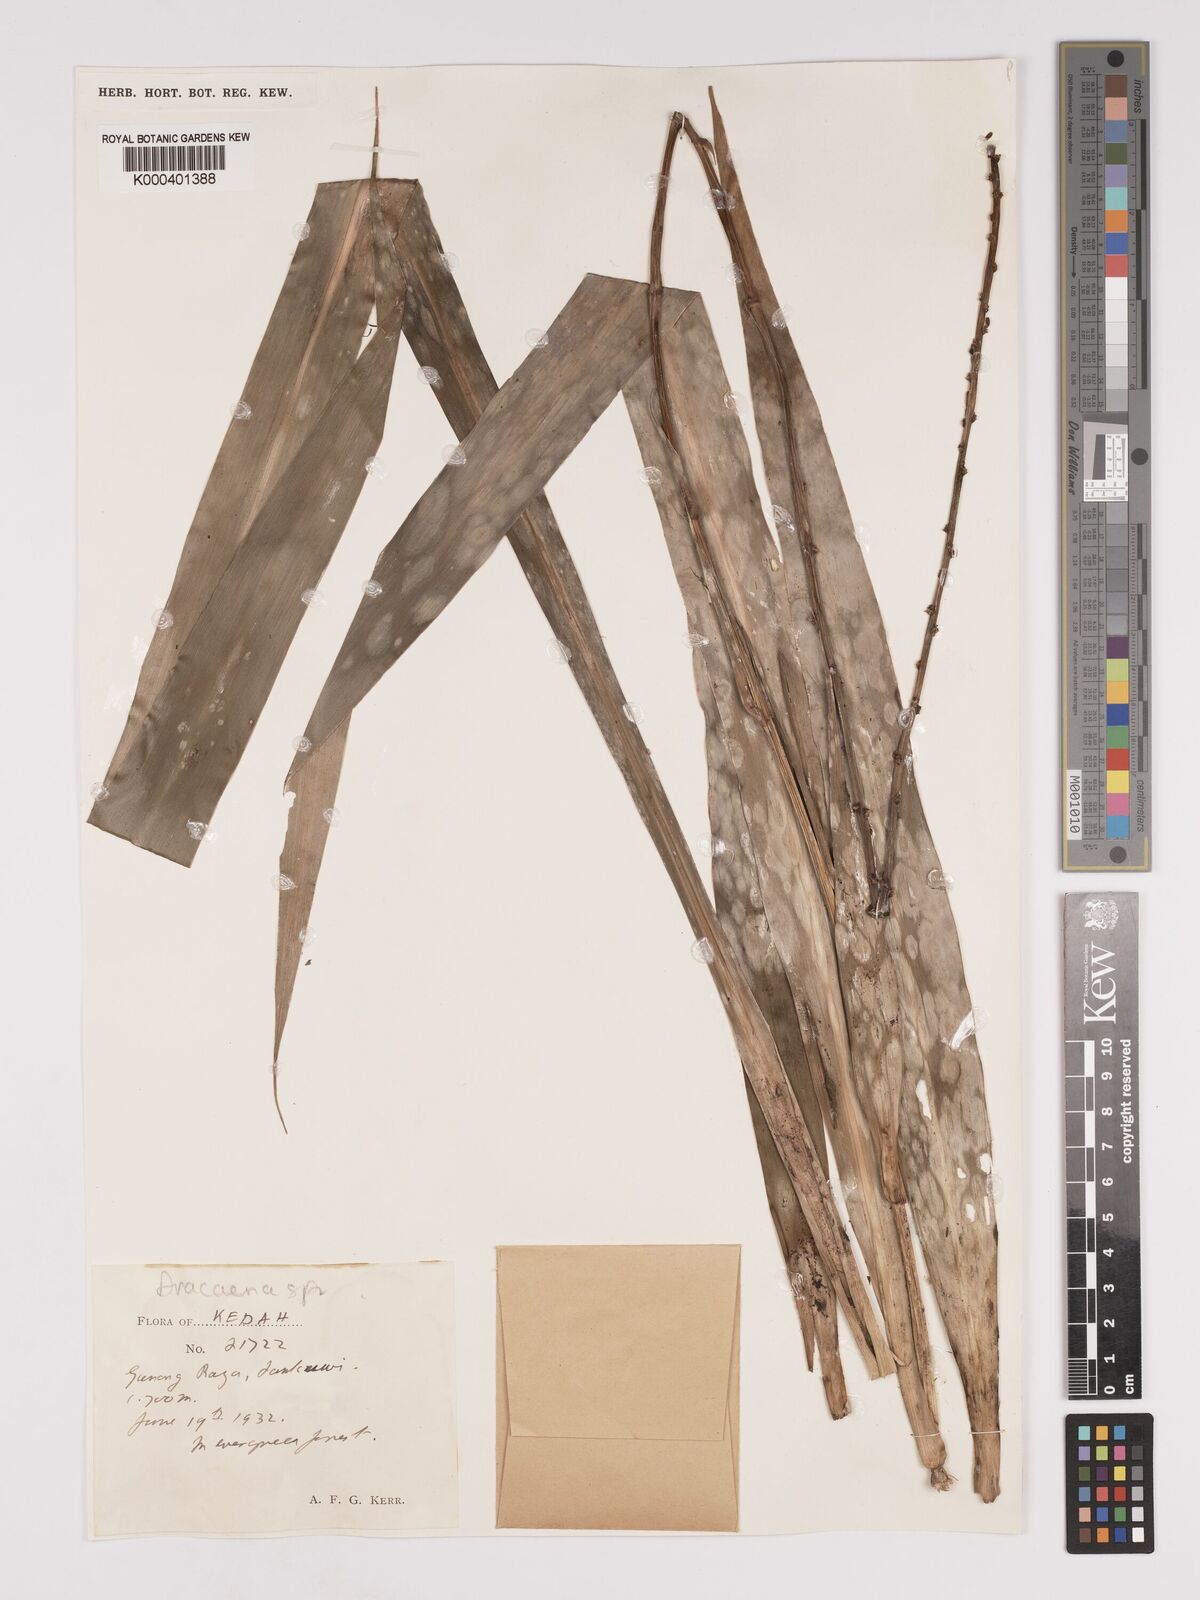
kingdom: Plantae
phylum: Tracheophyta
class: Liliopsida
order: Asparagales
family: Asparagaceae
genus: Dracaena
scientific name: Dracaena
